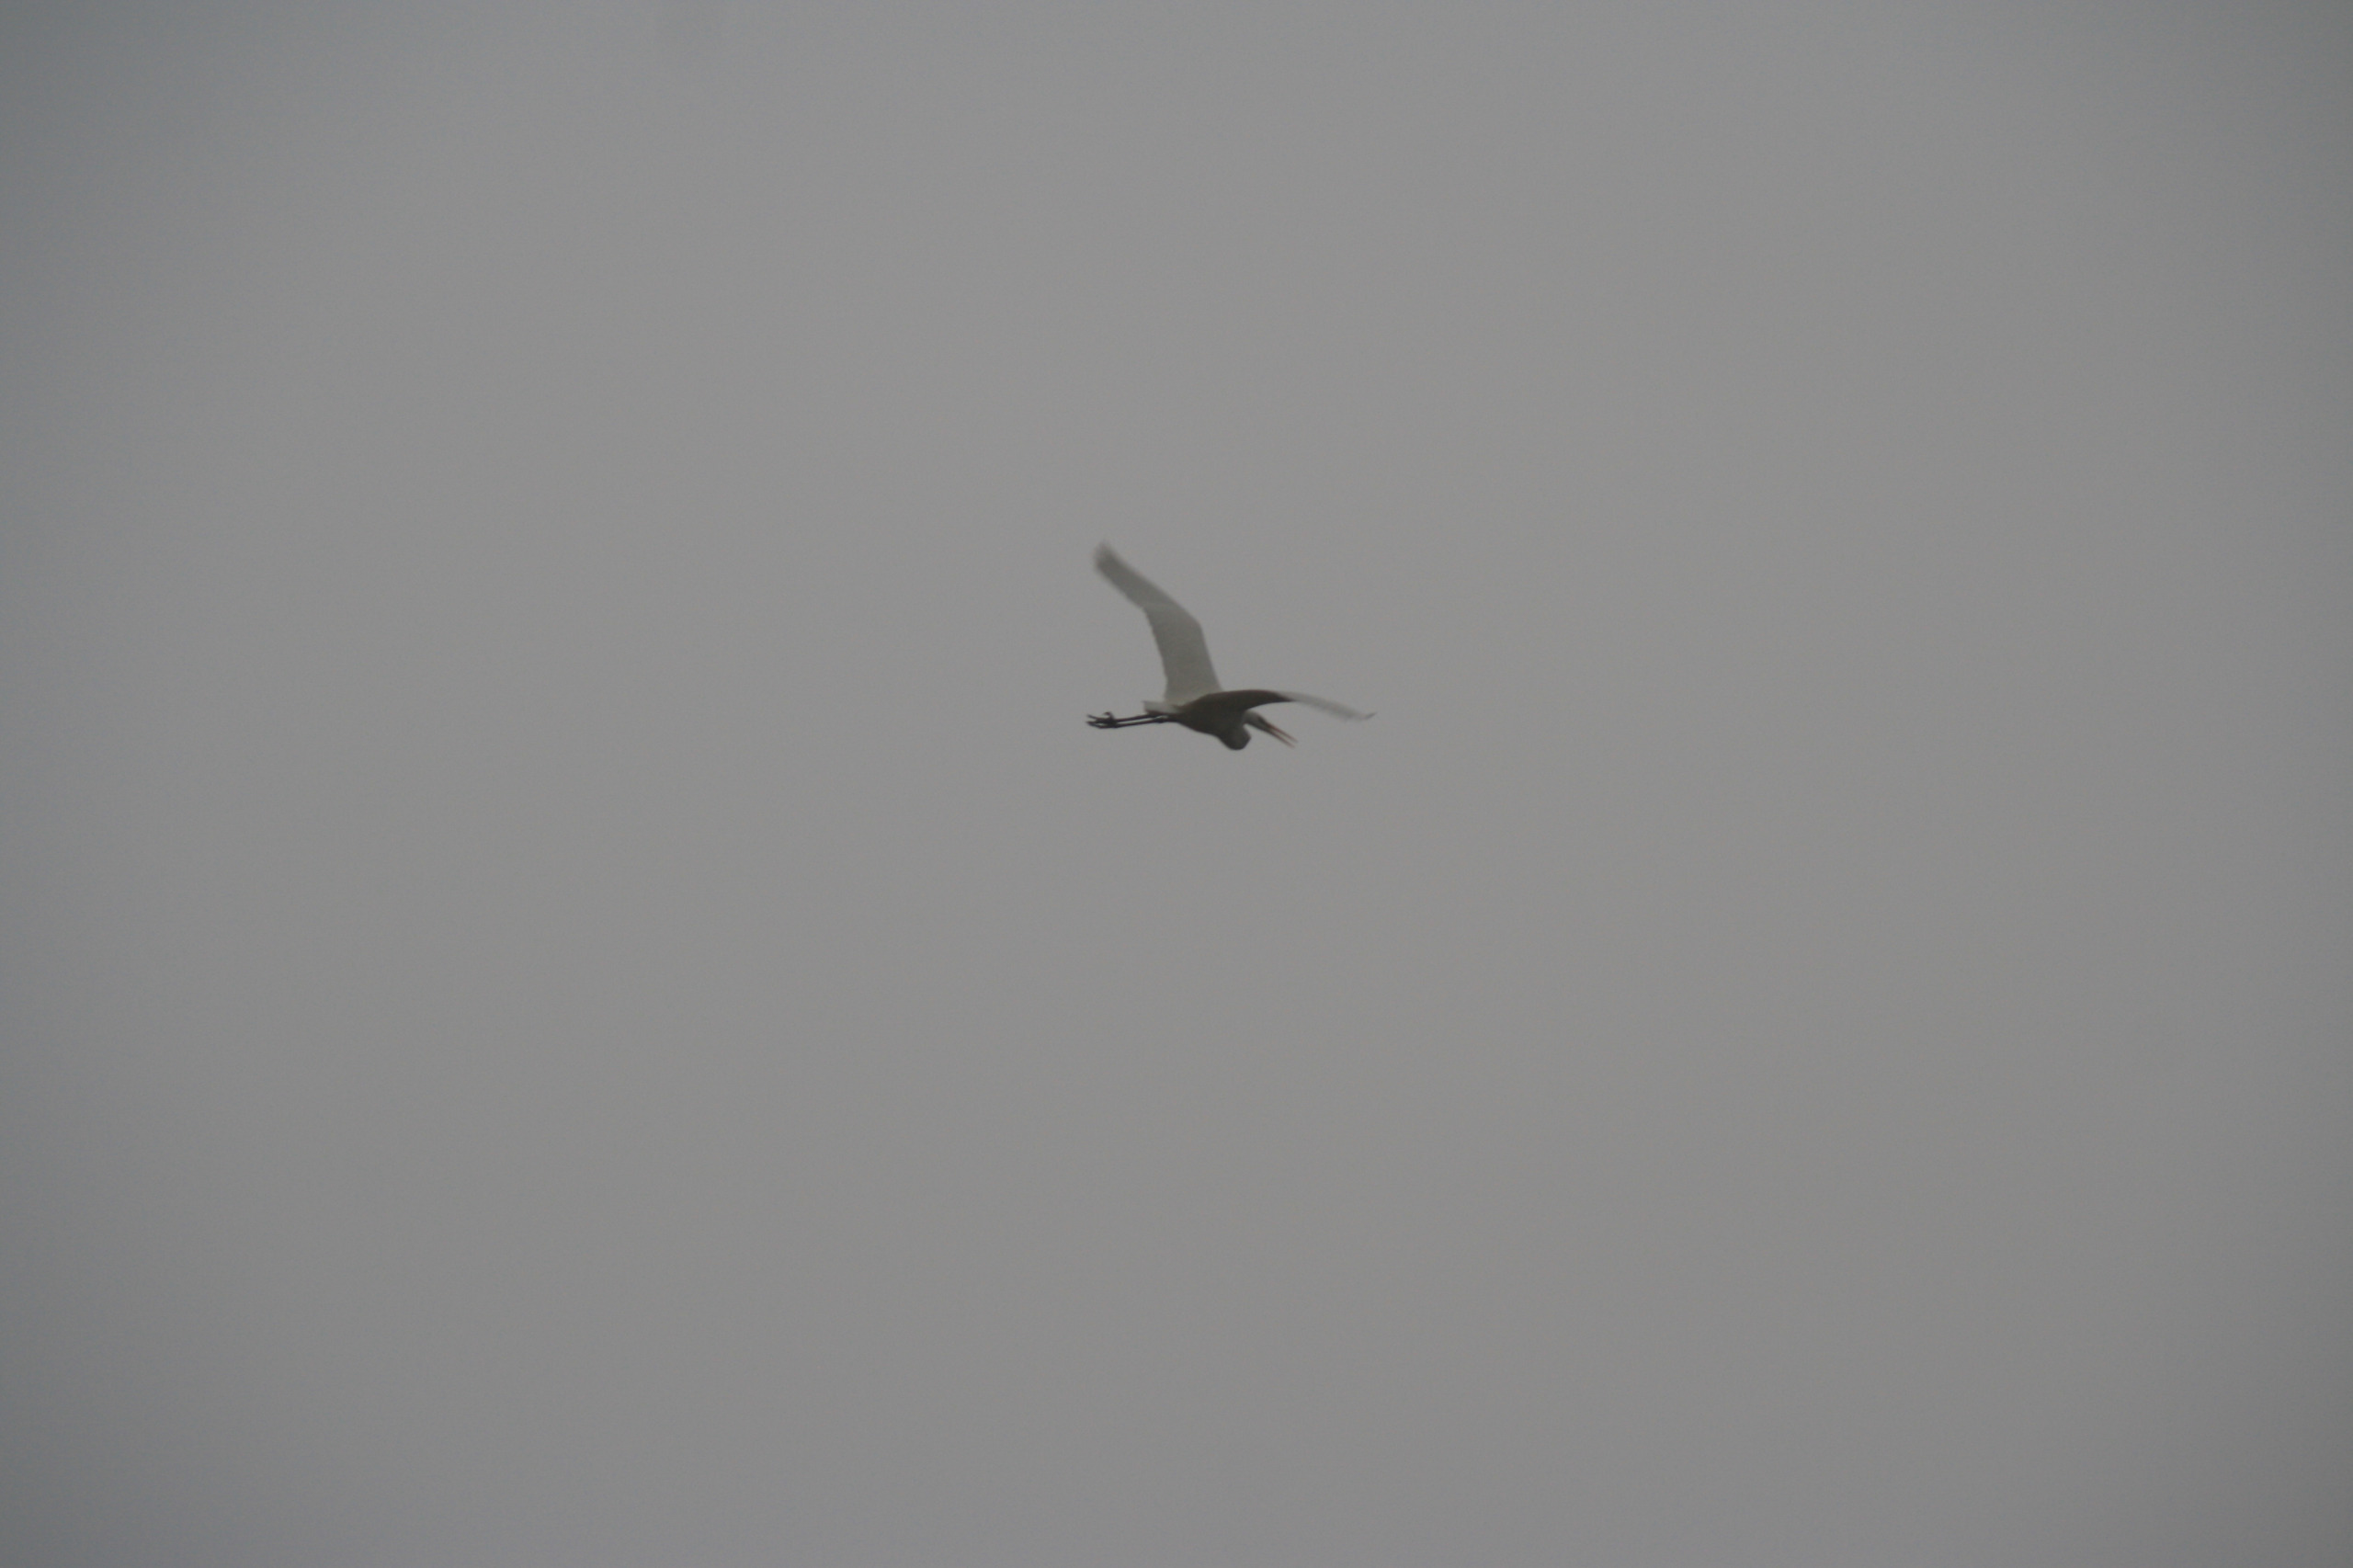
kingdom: Animalia
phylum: Chordata
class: Aves
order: Pelecaniformes
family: Ardeidae
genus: Ardea
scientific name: Ardea alba
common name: Sølvhejre
